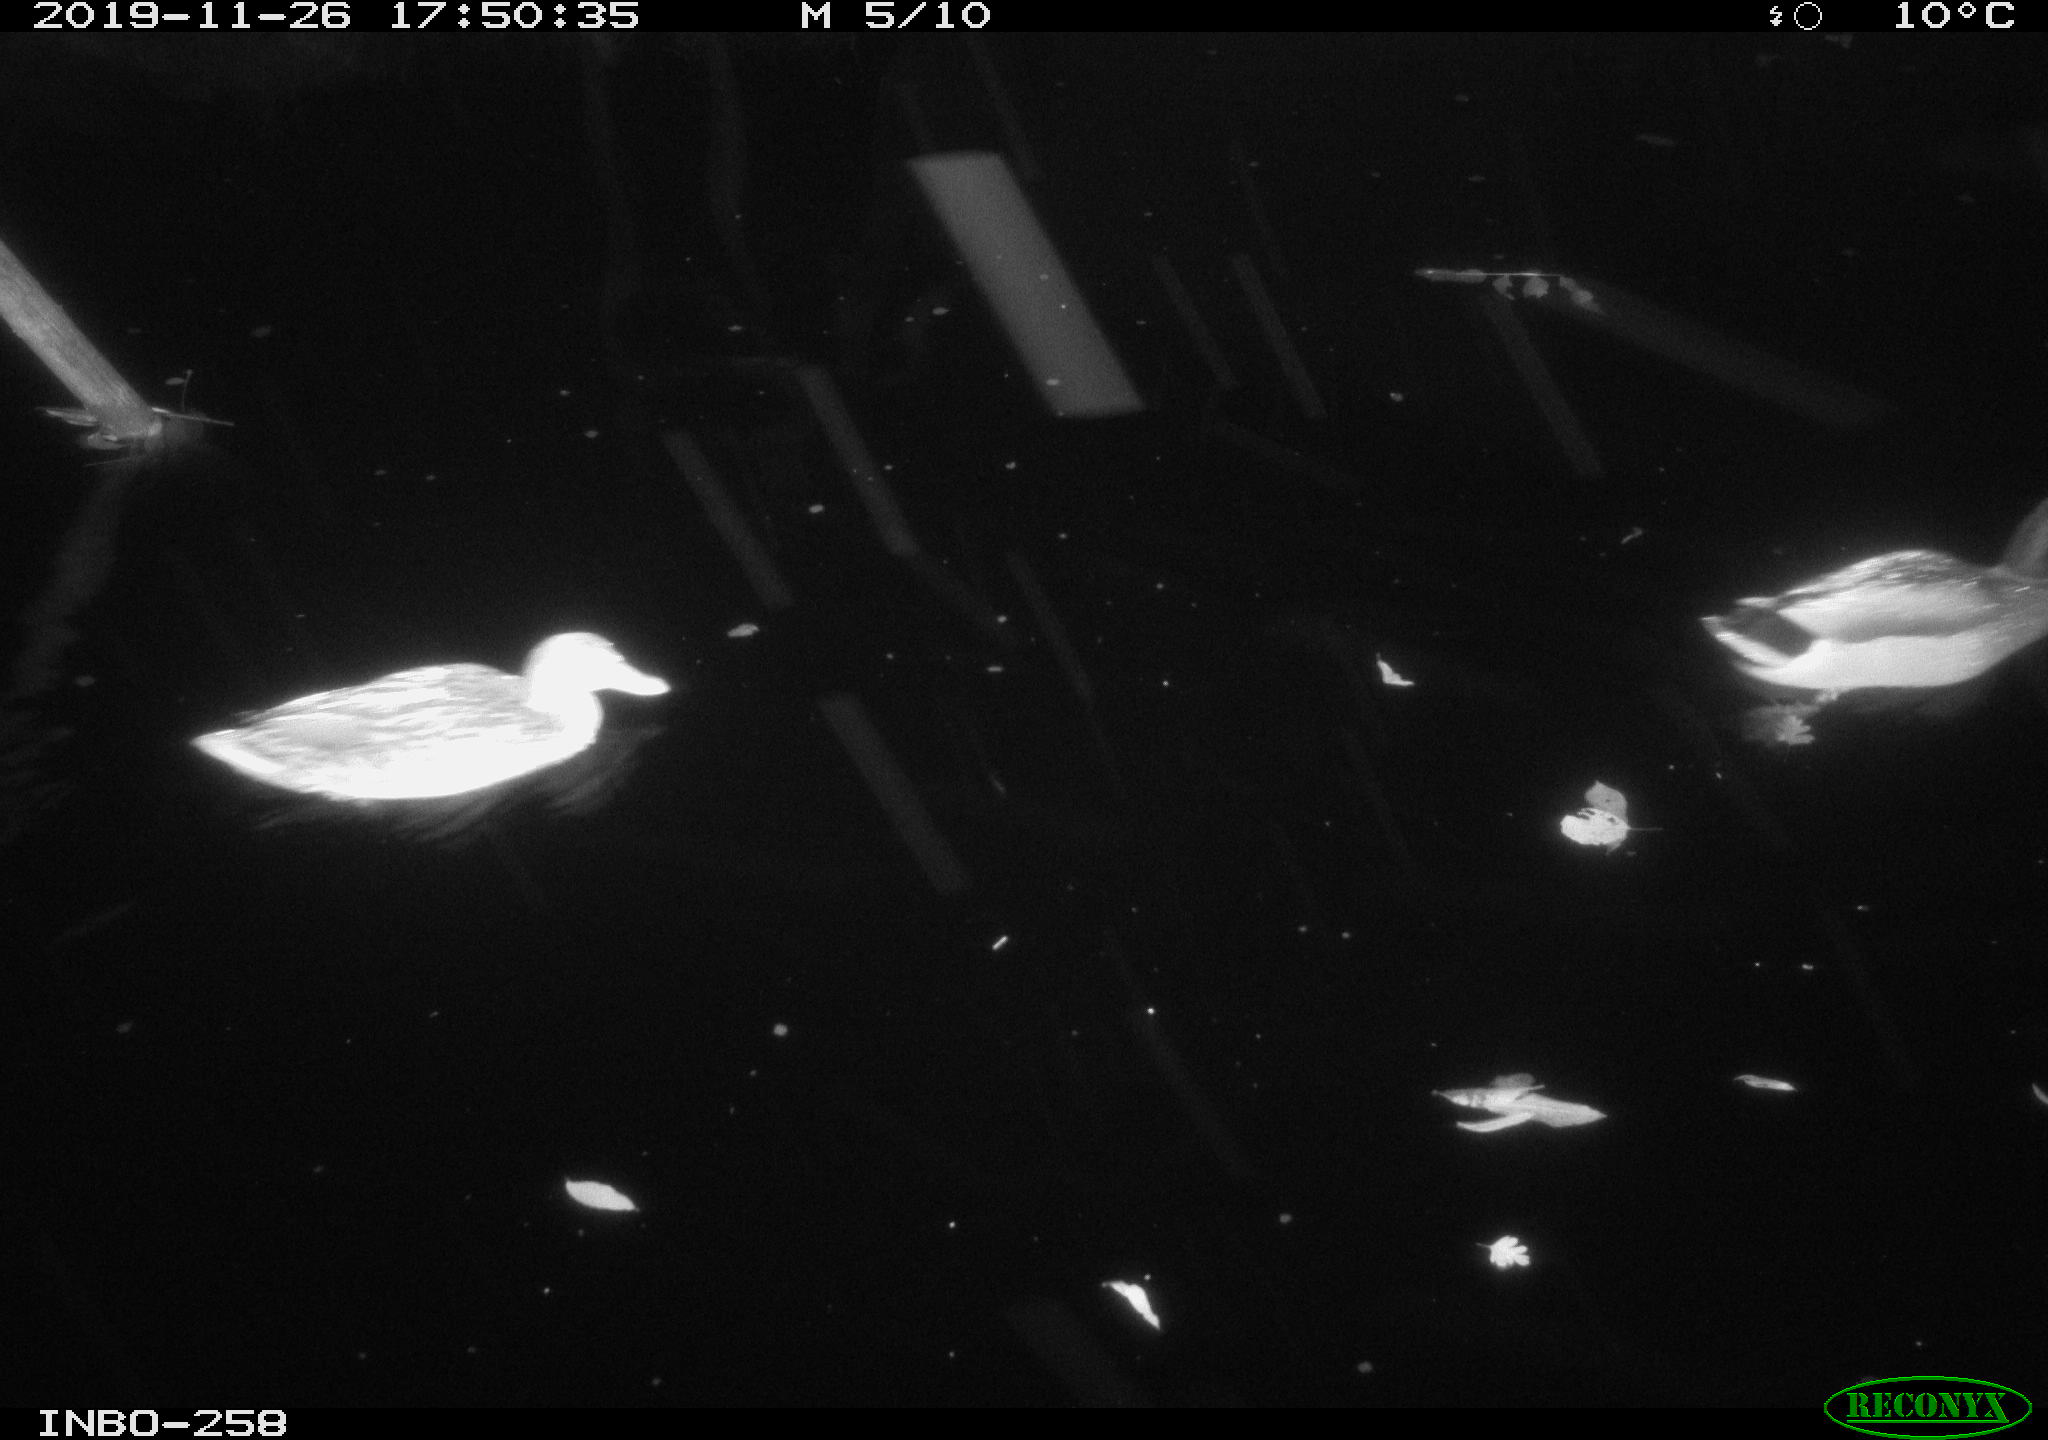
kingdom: Animalia
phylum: Chordata
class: Aves
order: Anseriformes
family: Anatidae
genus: Anas
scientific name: Anas platyrhynchos
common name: Mallard
